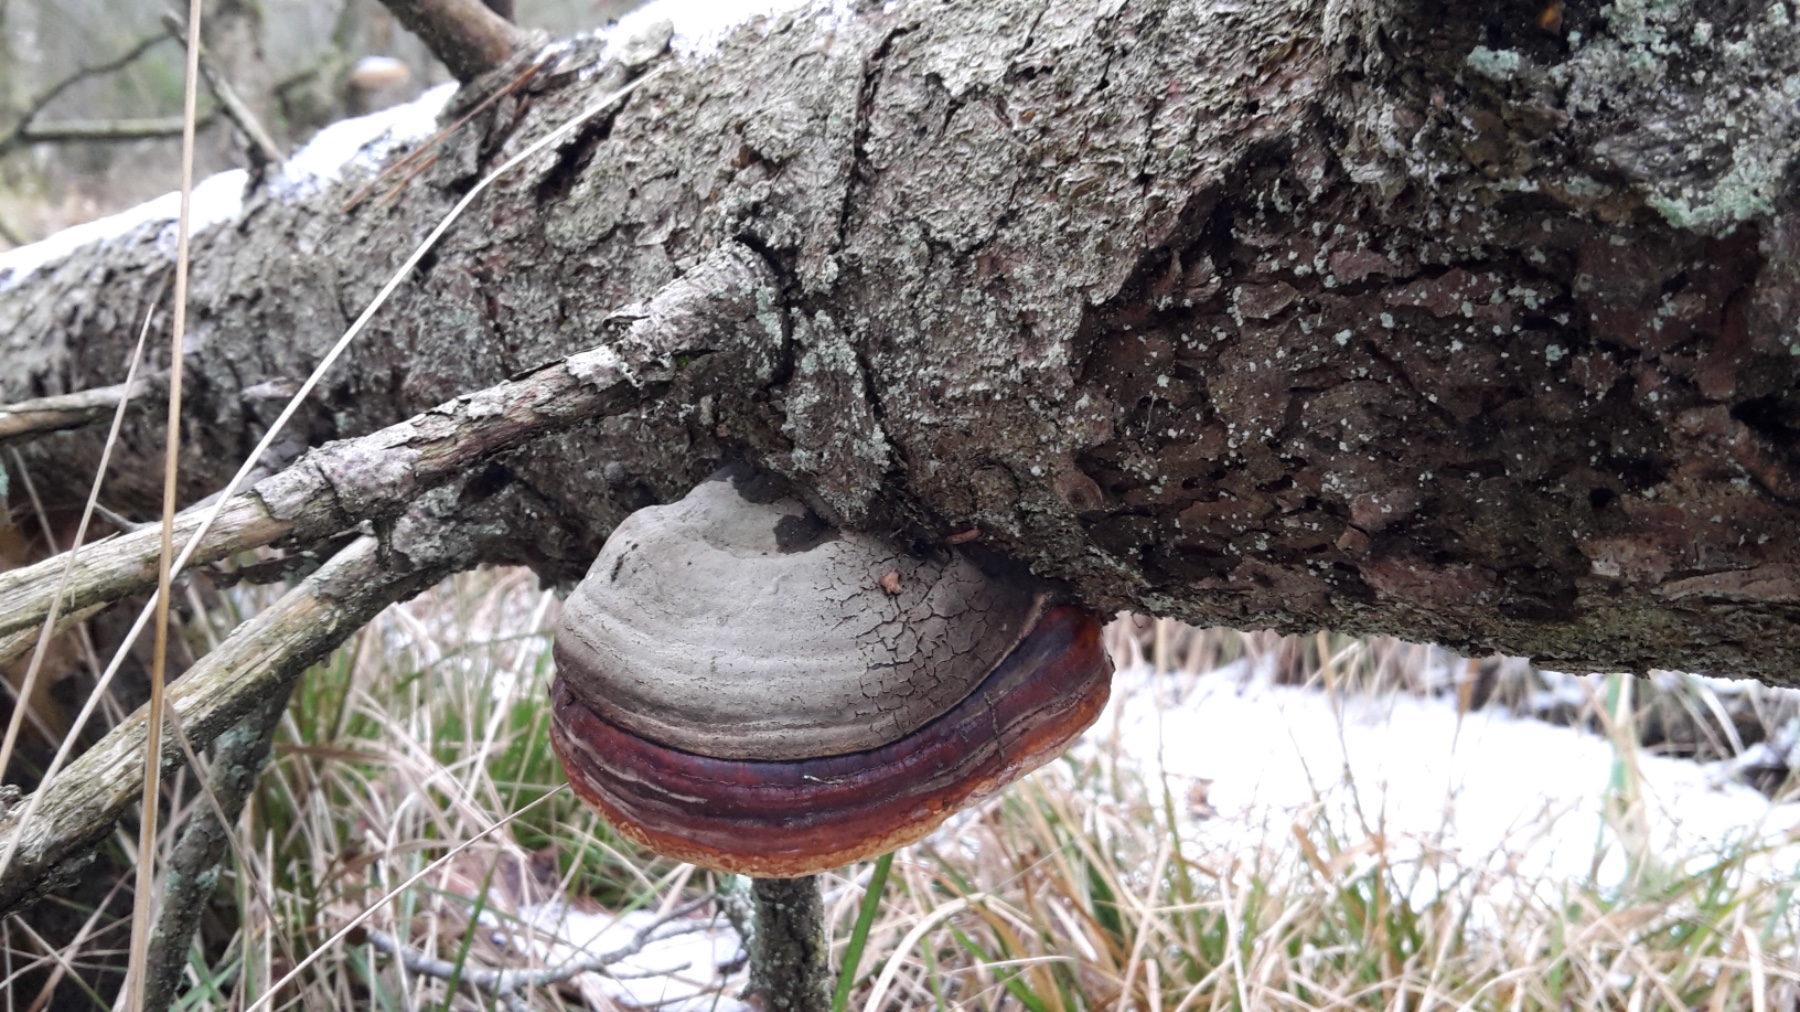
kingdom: Fungi
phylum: Basidiomycota
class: Agaricomycetes
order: Polyporales
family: Fomitopsidaceae
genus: Fomitopsis
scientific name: Fomitopsis pinicola
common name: randbæltet hovporesvamp
